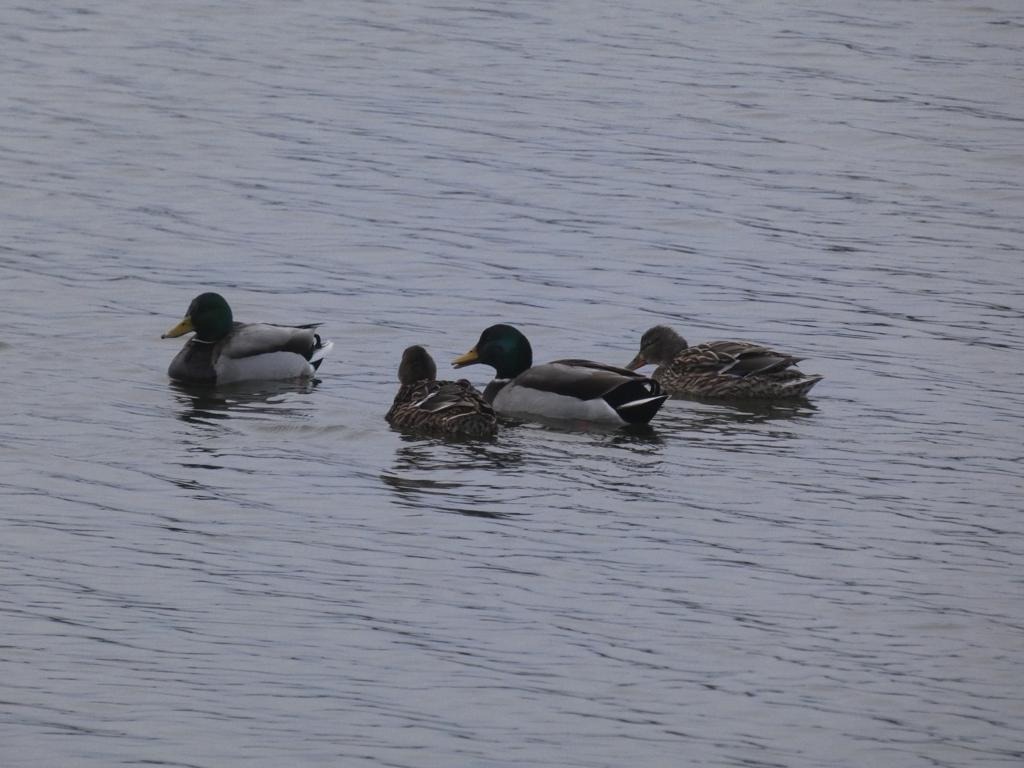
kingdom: Animalia
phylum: Chordata
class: Aves
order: Anseriformes
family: Anatidae
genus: Anas
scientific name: Anas platyrhynchos
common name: Gråand
